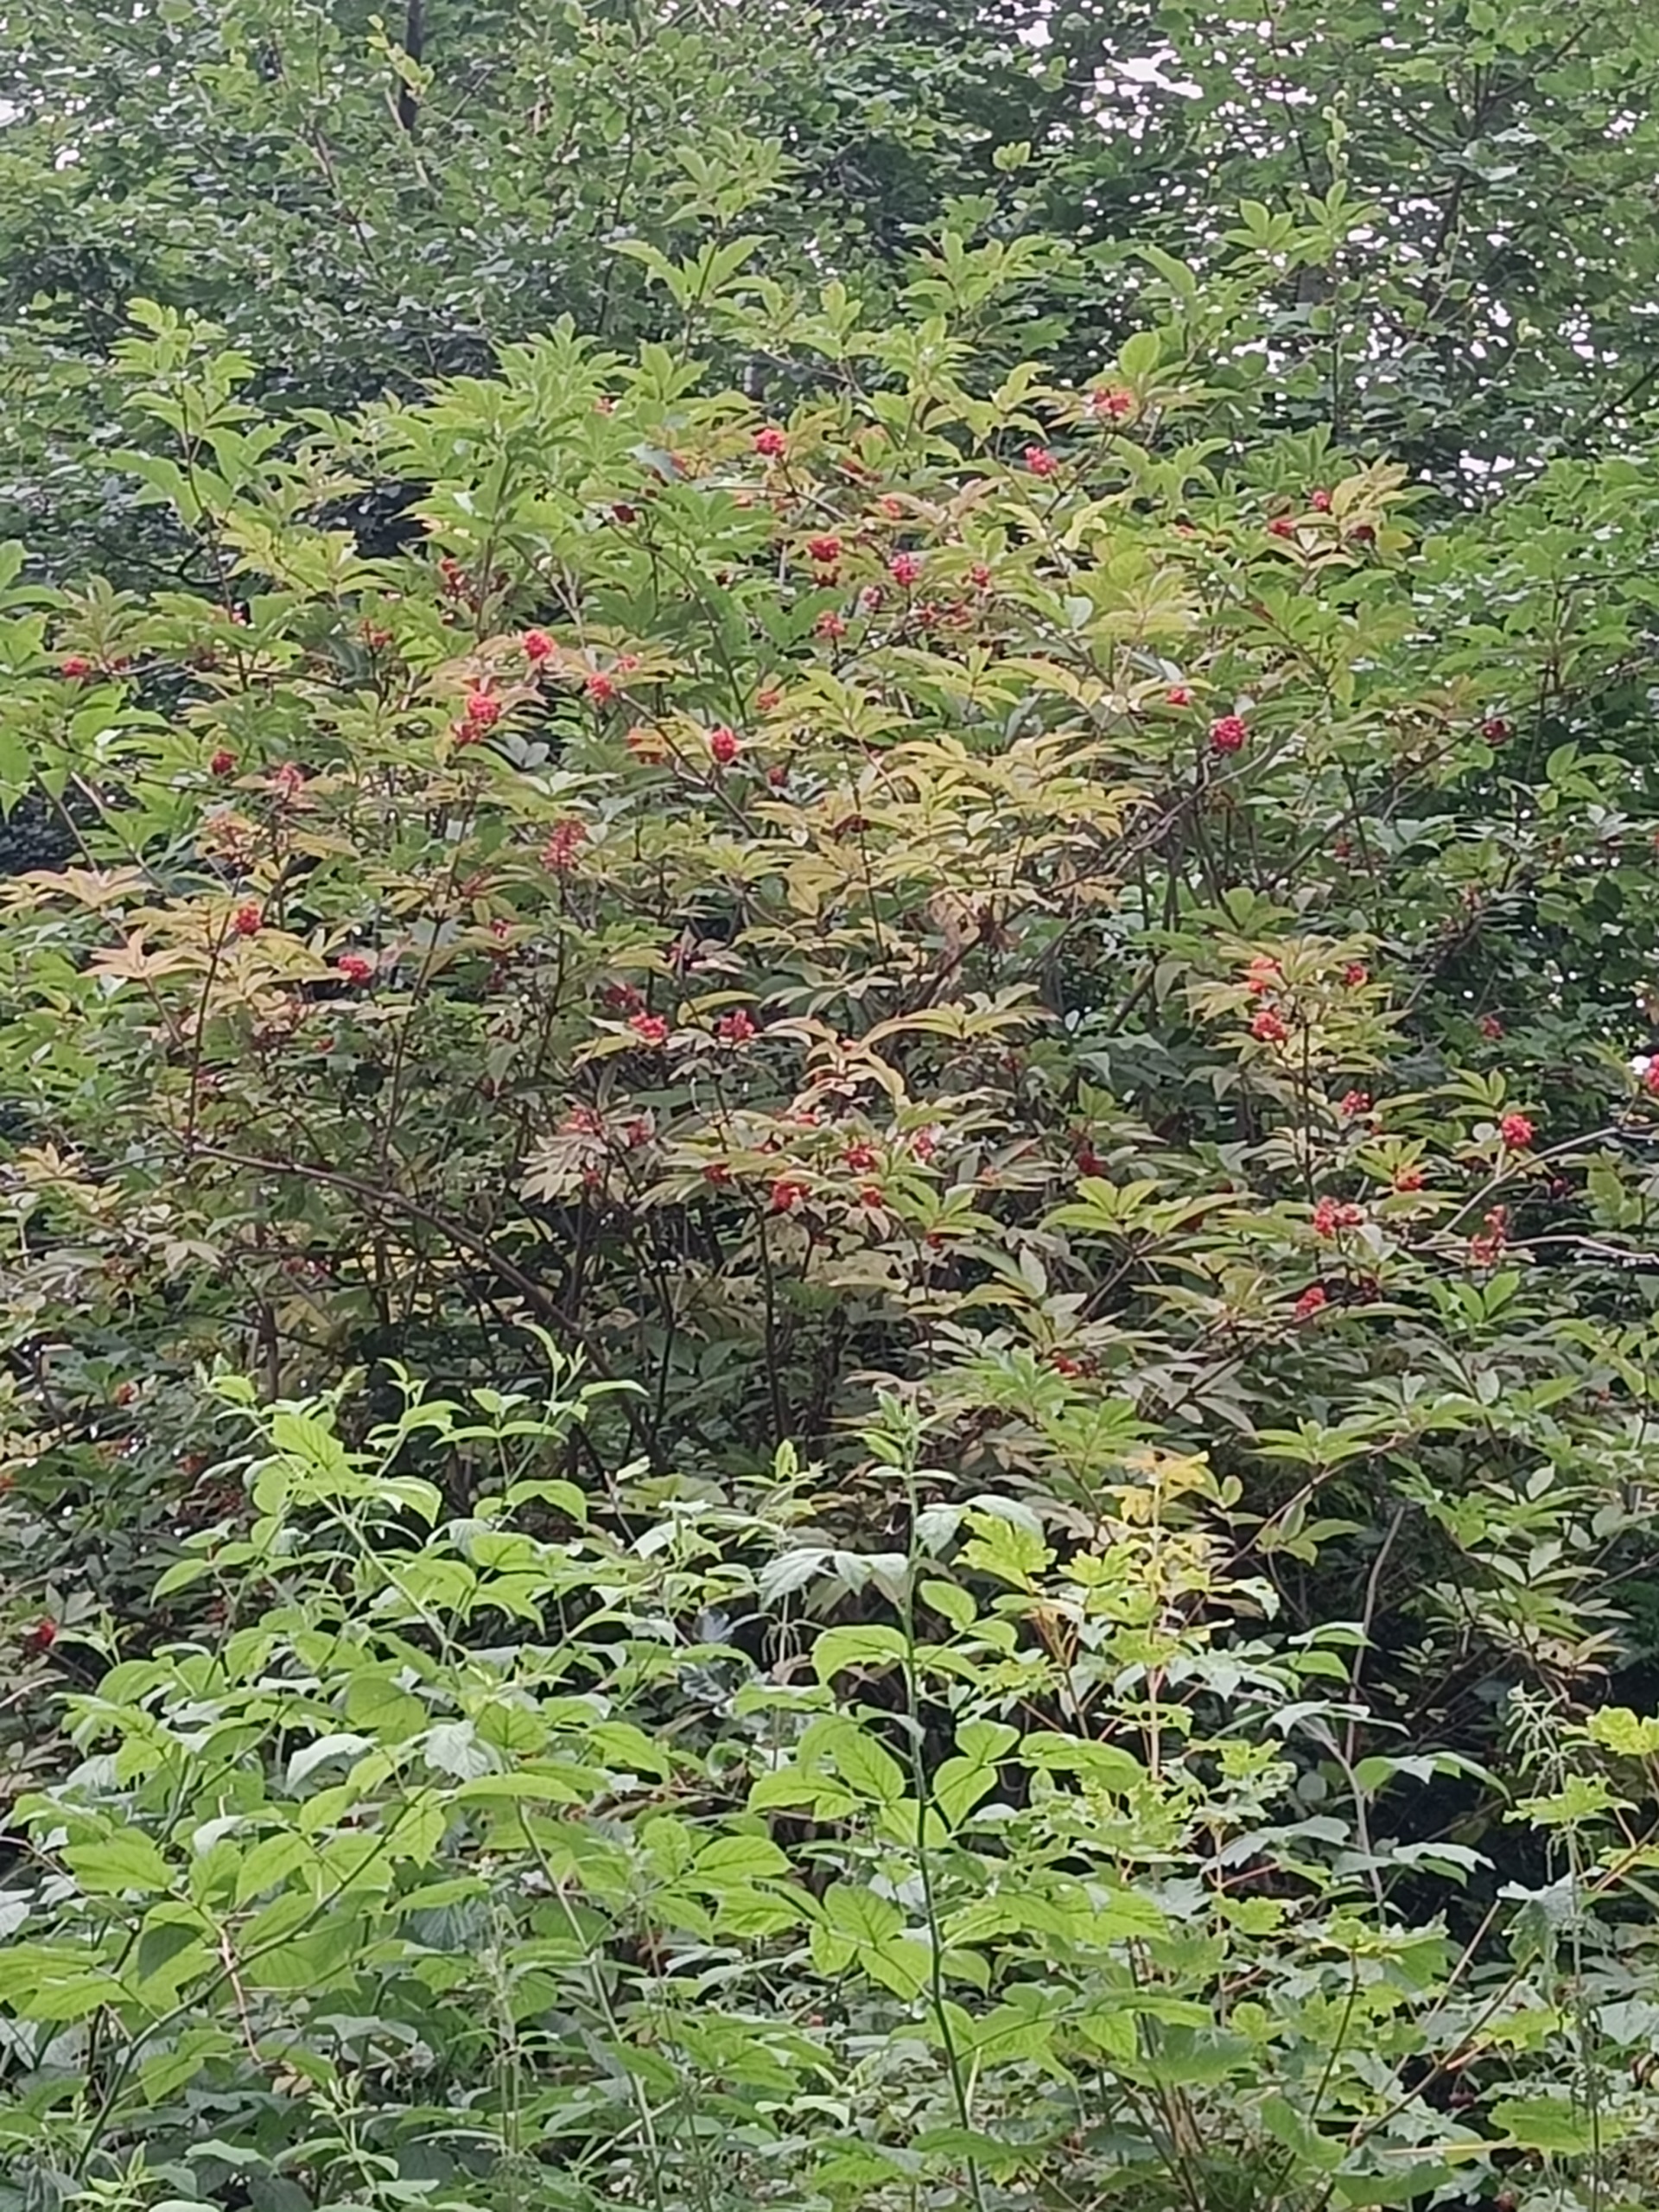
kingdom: Plantae
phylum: Tracheophyta
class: Magnoliopsida
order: Dipsacales
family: Viburnaceae
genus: Sambucus
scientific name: Sambucus racemosa
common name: Drue-hyld
